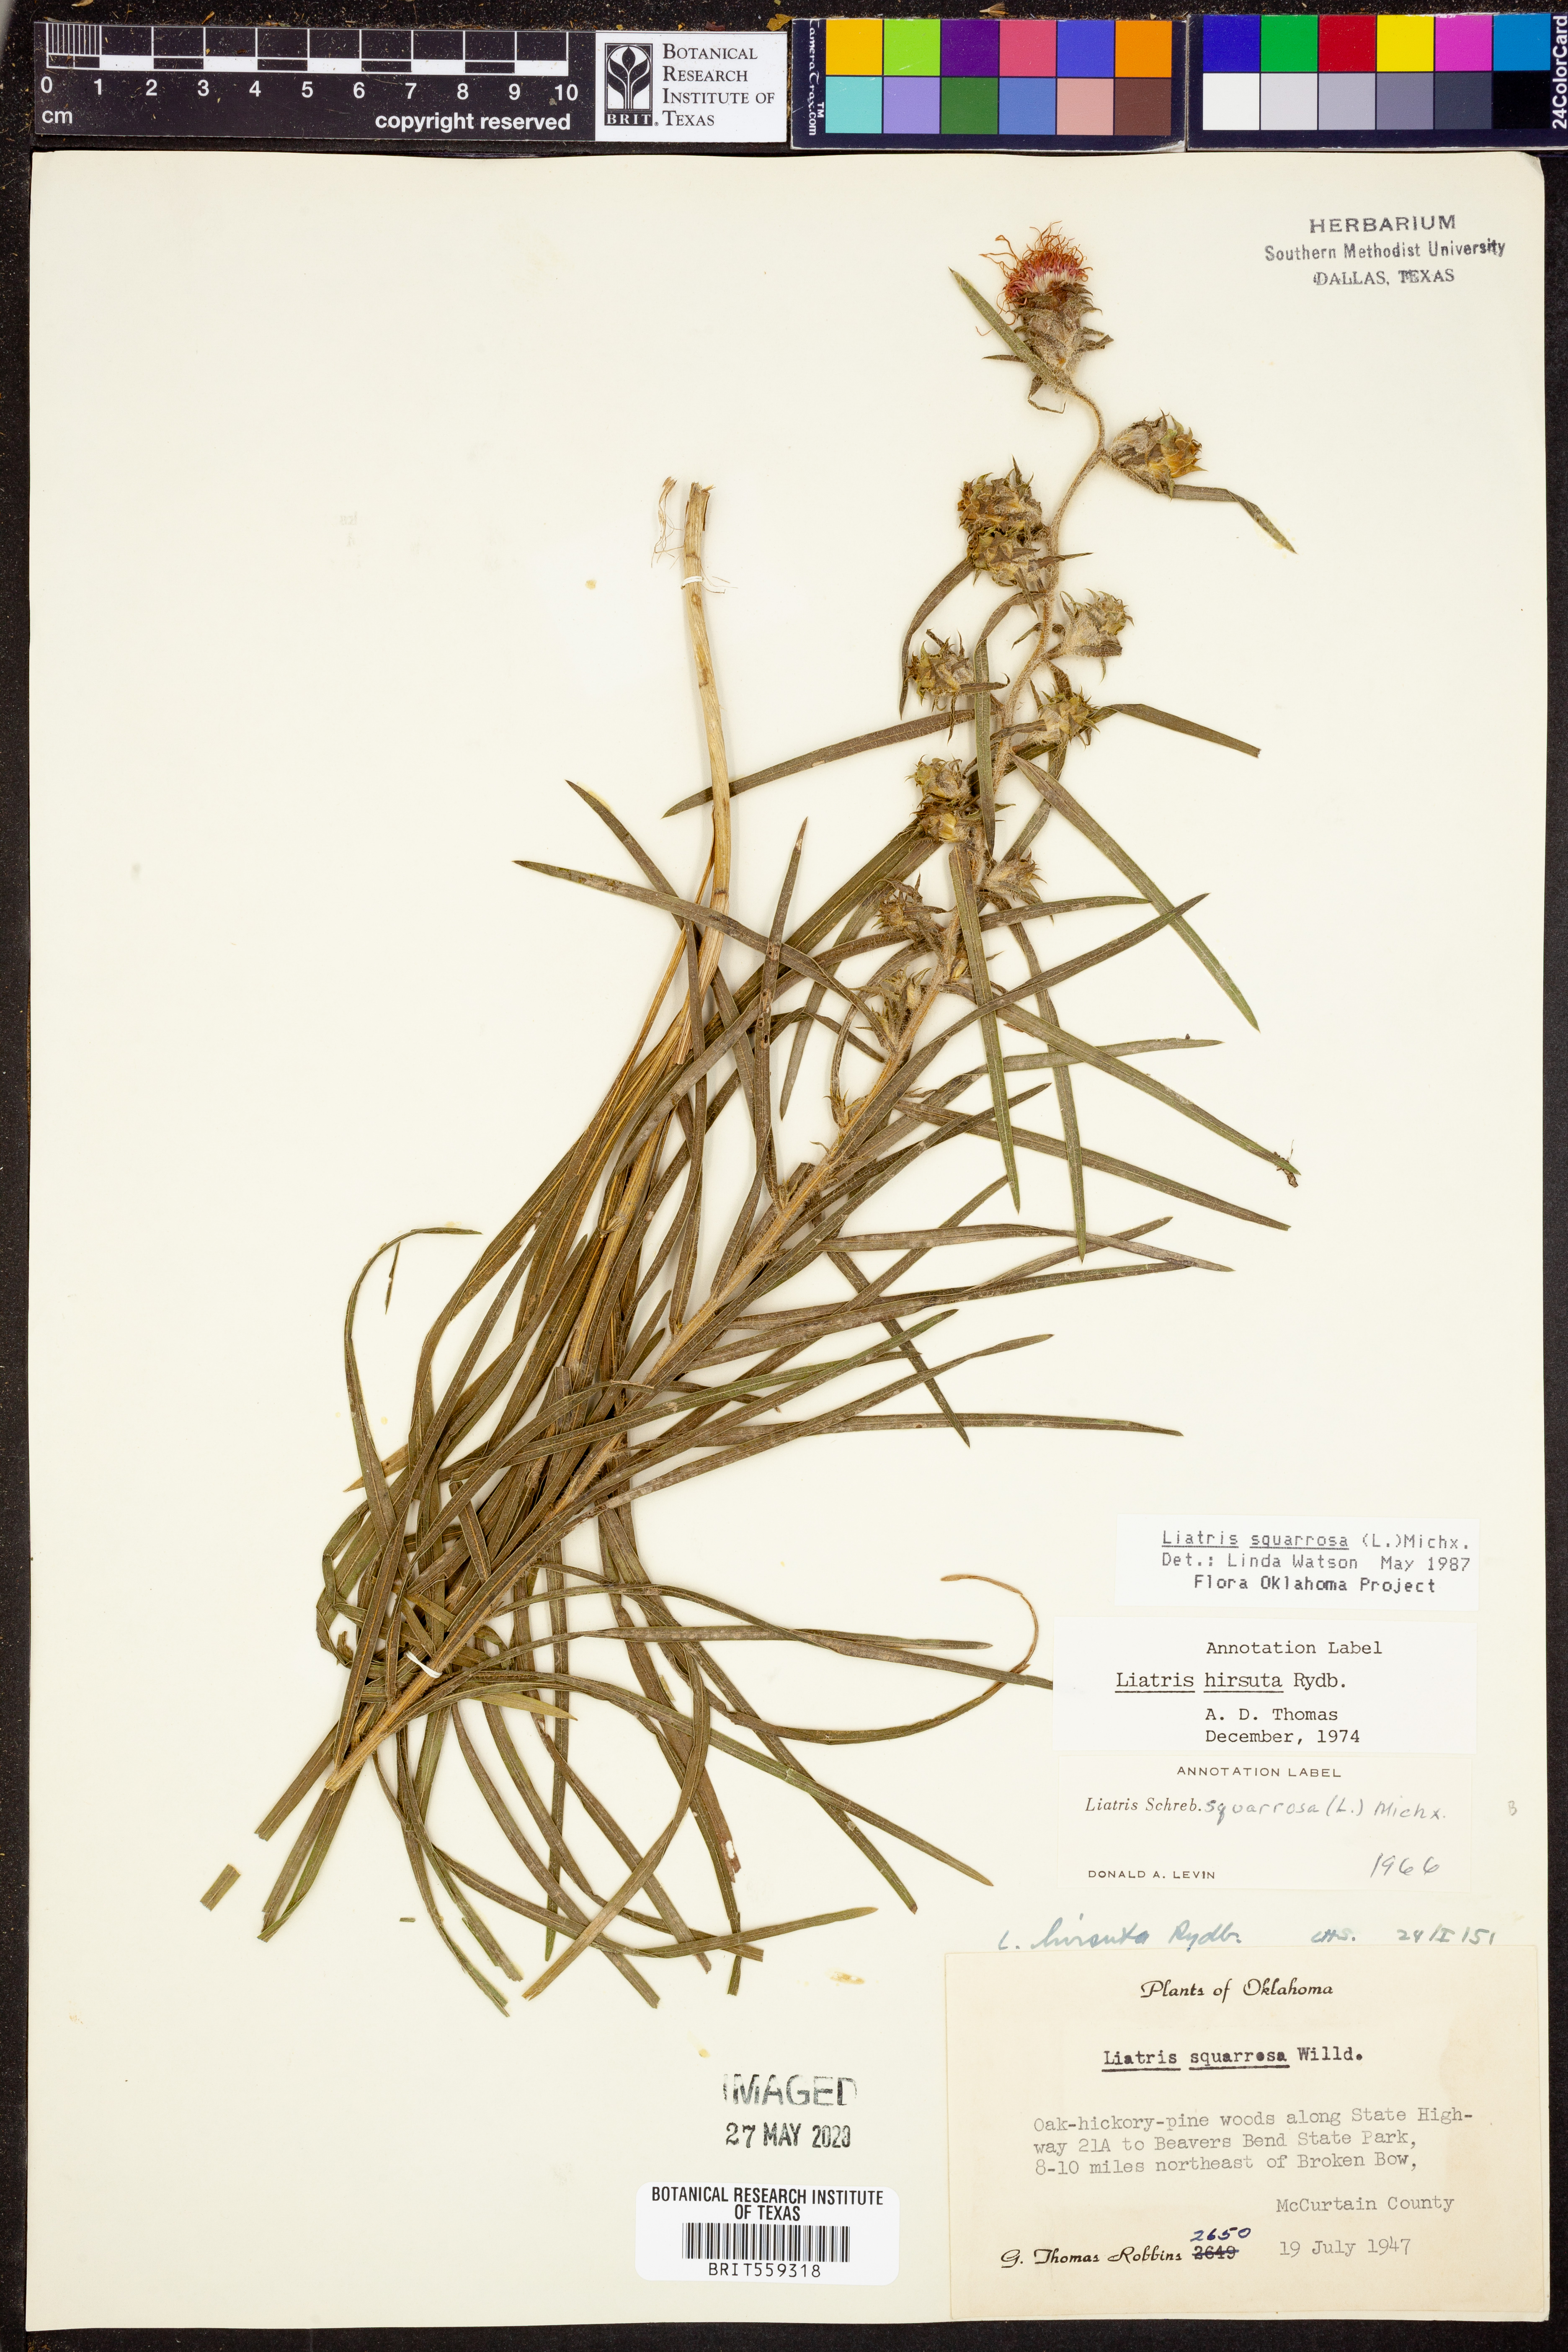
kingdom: Plantae
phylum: Tracheophyta
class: Magnoliopsida
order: Asterales
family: Asteraceae
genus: Liatris
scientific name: Liatris squarrosa
